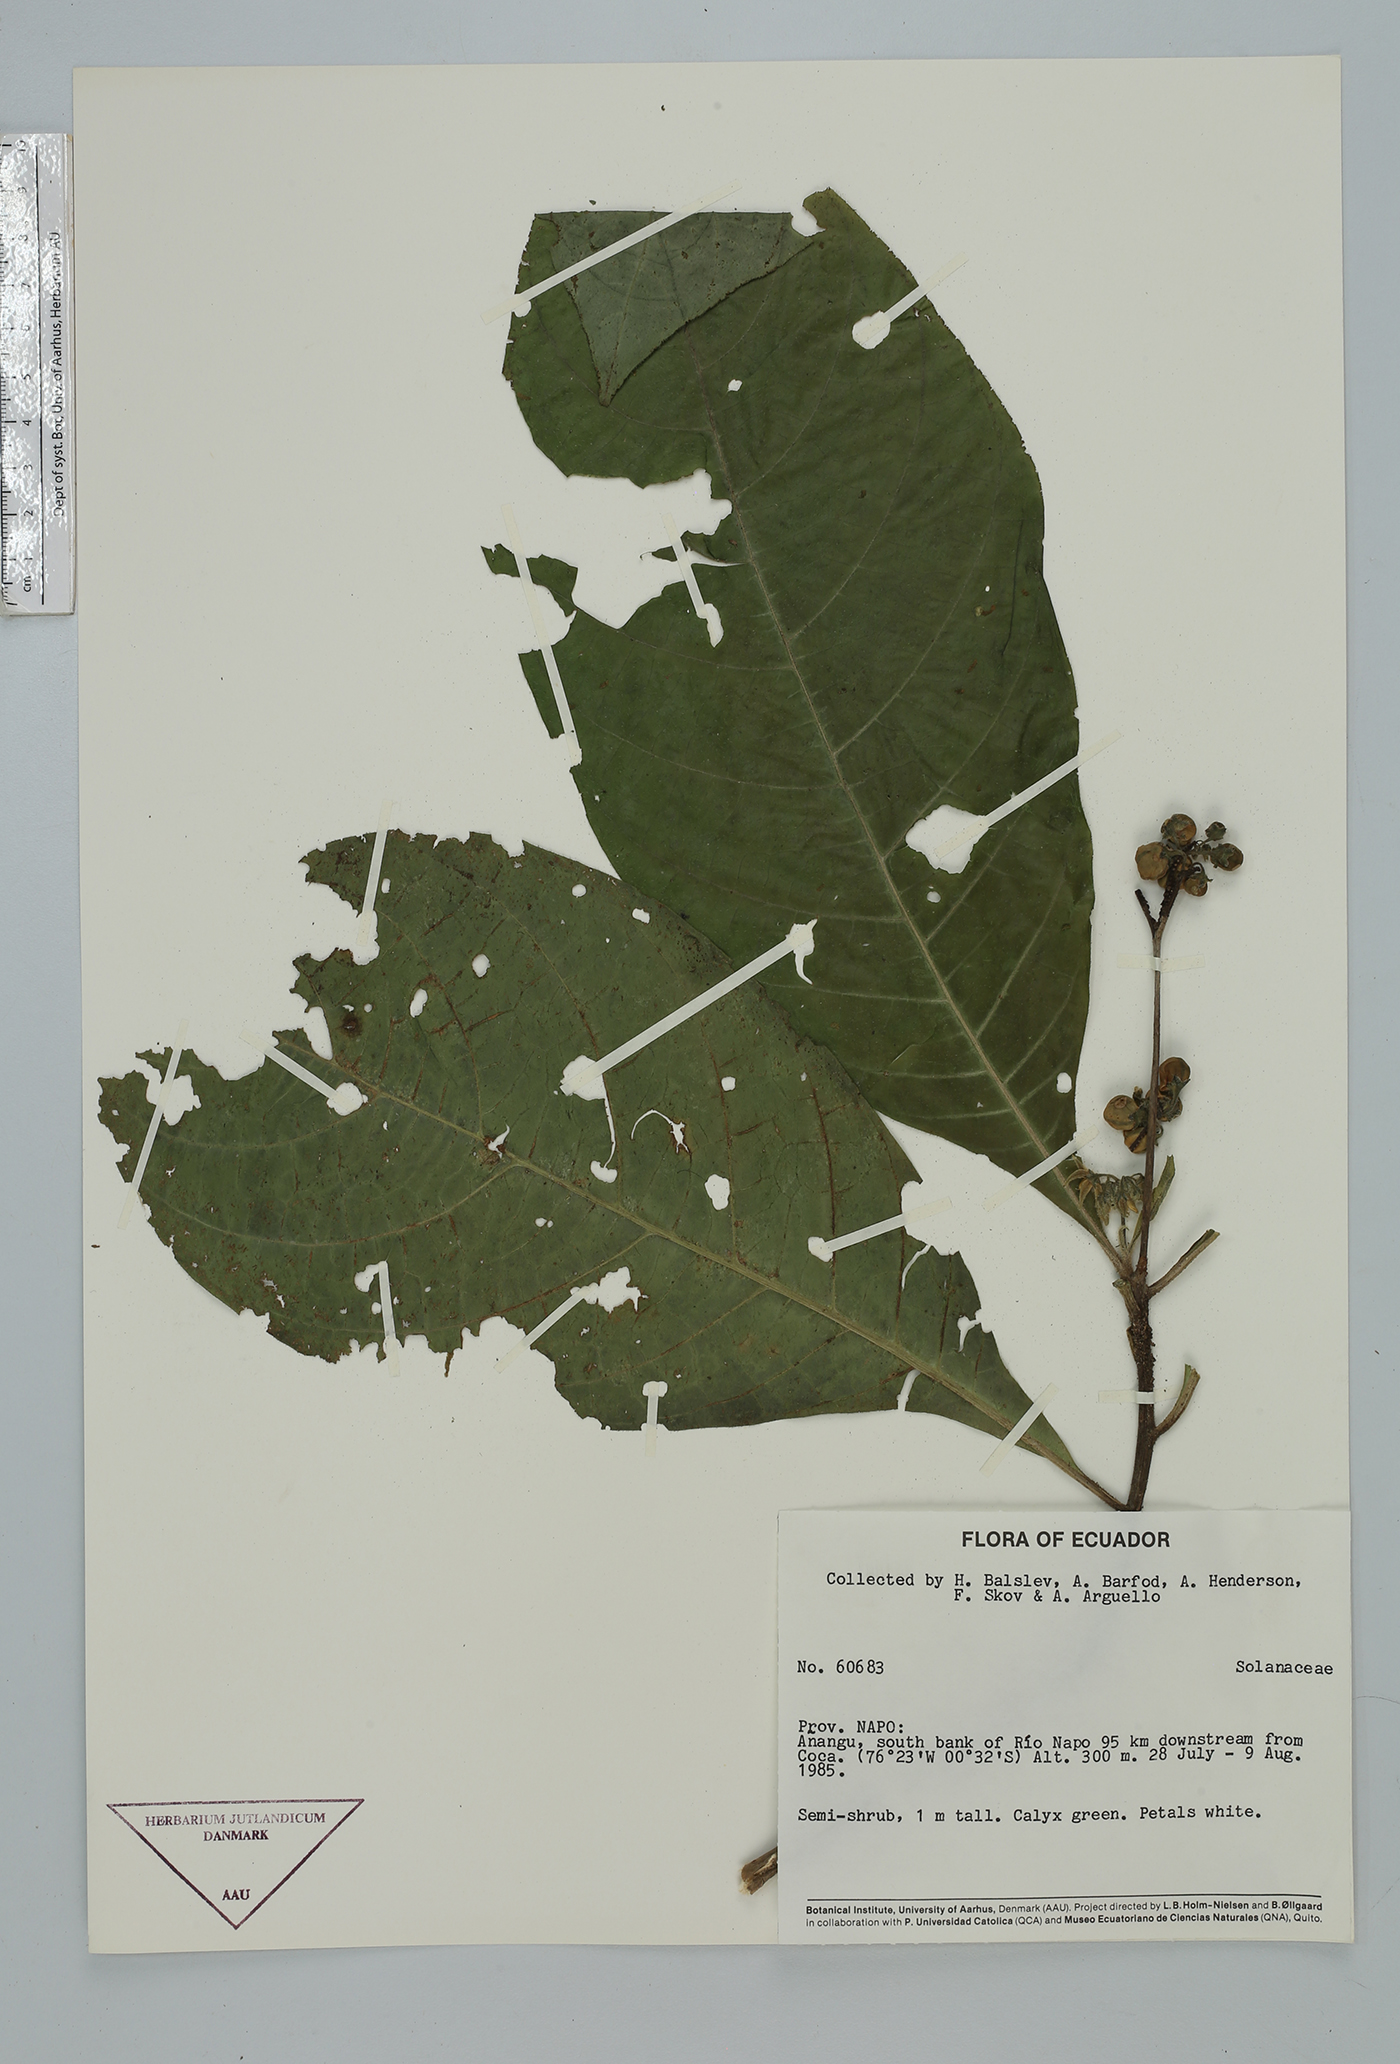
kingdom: Plantae
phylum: Tracheophyta
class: Magnoliopsida
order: Solanales
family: Solanaceae
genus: Solanum
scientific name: Solanum
